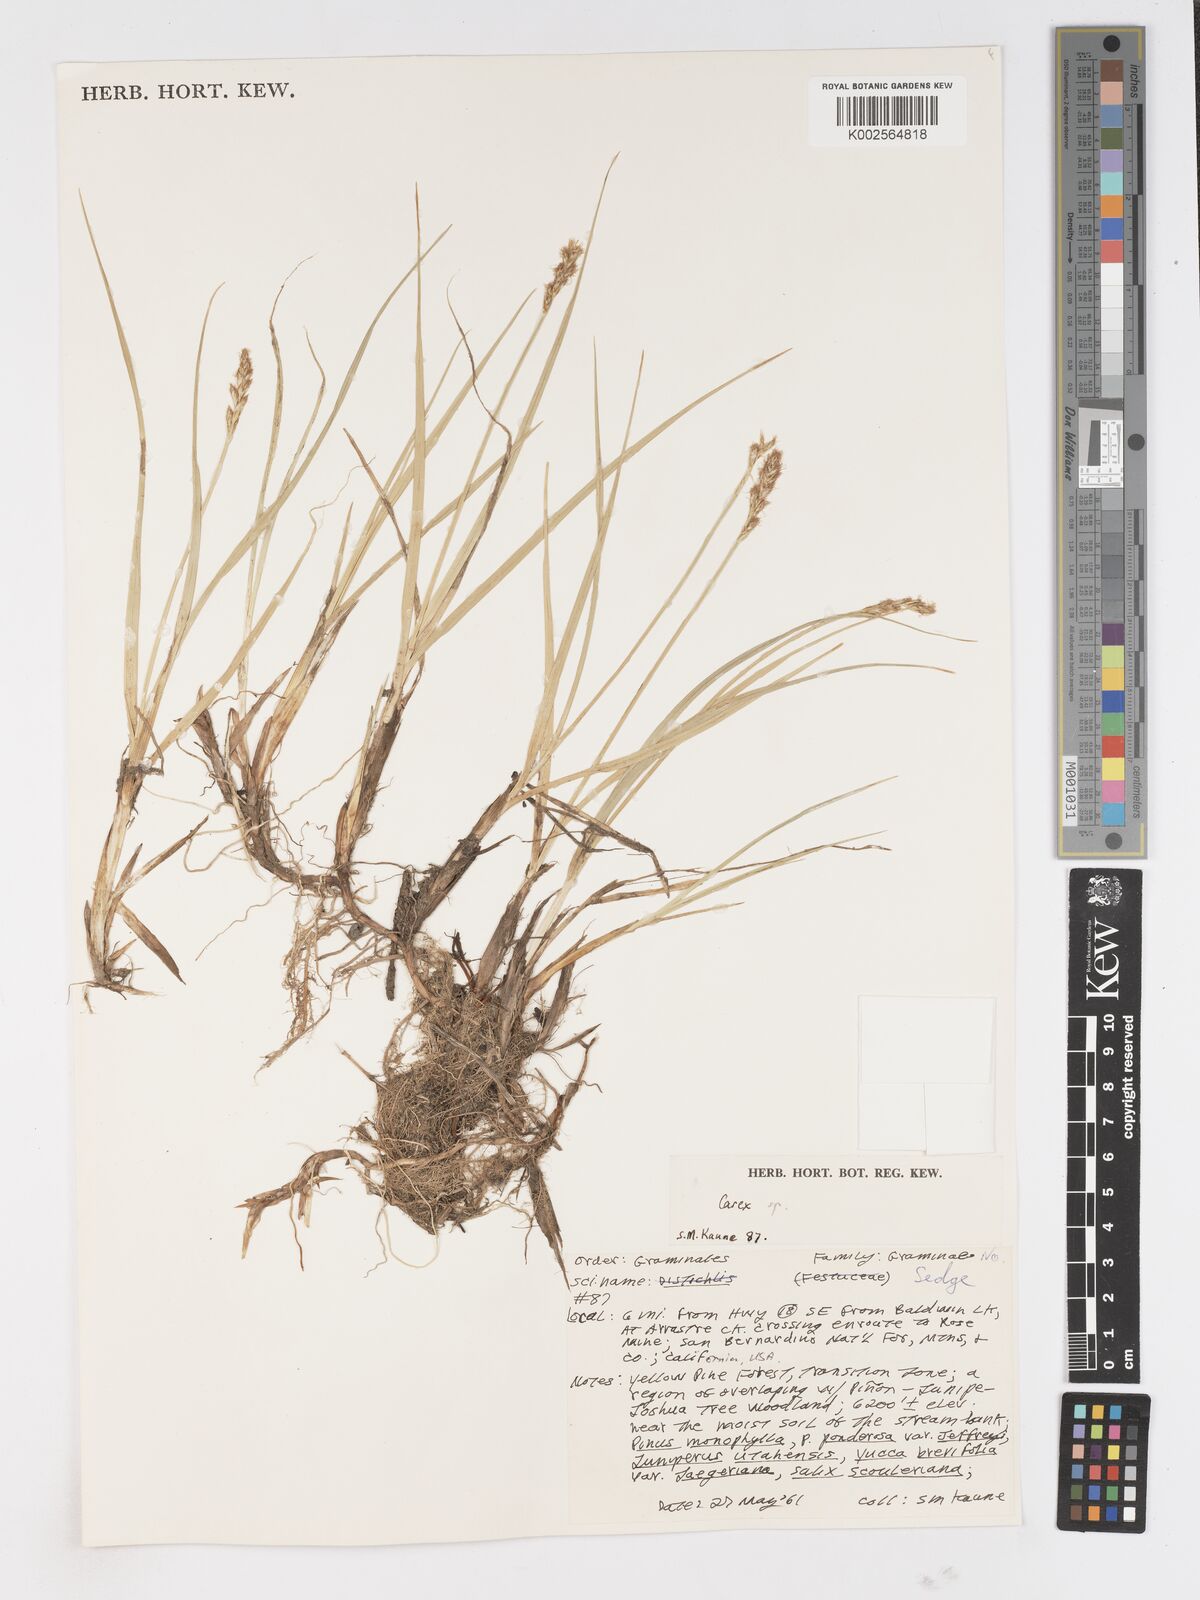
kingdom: Plantae
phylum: Tracheophyta
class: Liliopsida
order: Poales
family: Cyperaceae
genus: Carex
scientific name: Carex
